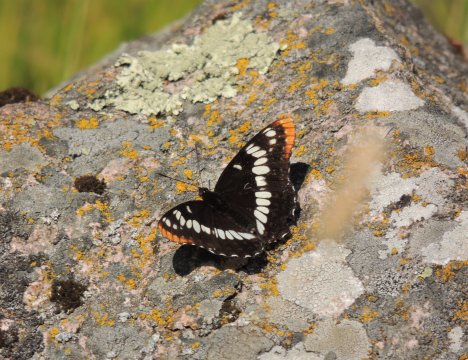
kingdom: Animalia
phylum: Arthropoda
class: Insecta
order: Lepidoptera
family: Nymphalidae
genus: Limenitis
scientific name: Limenitis lorquini
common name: Lorquin's Admiral
